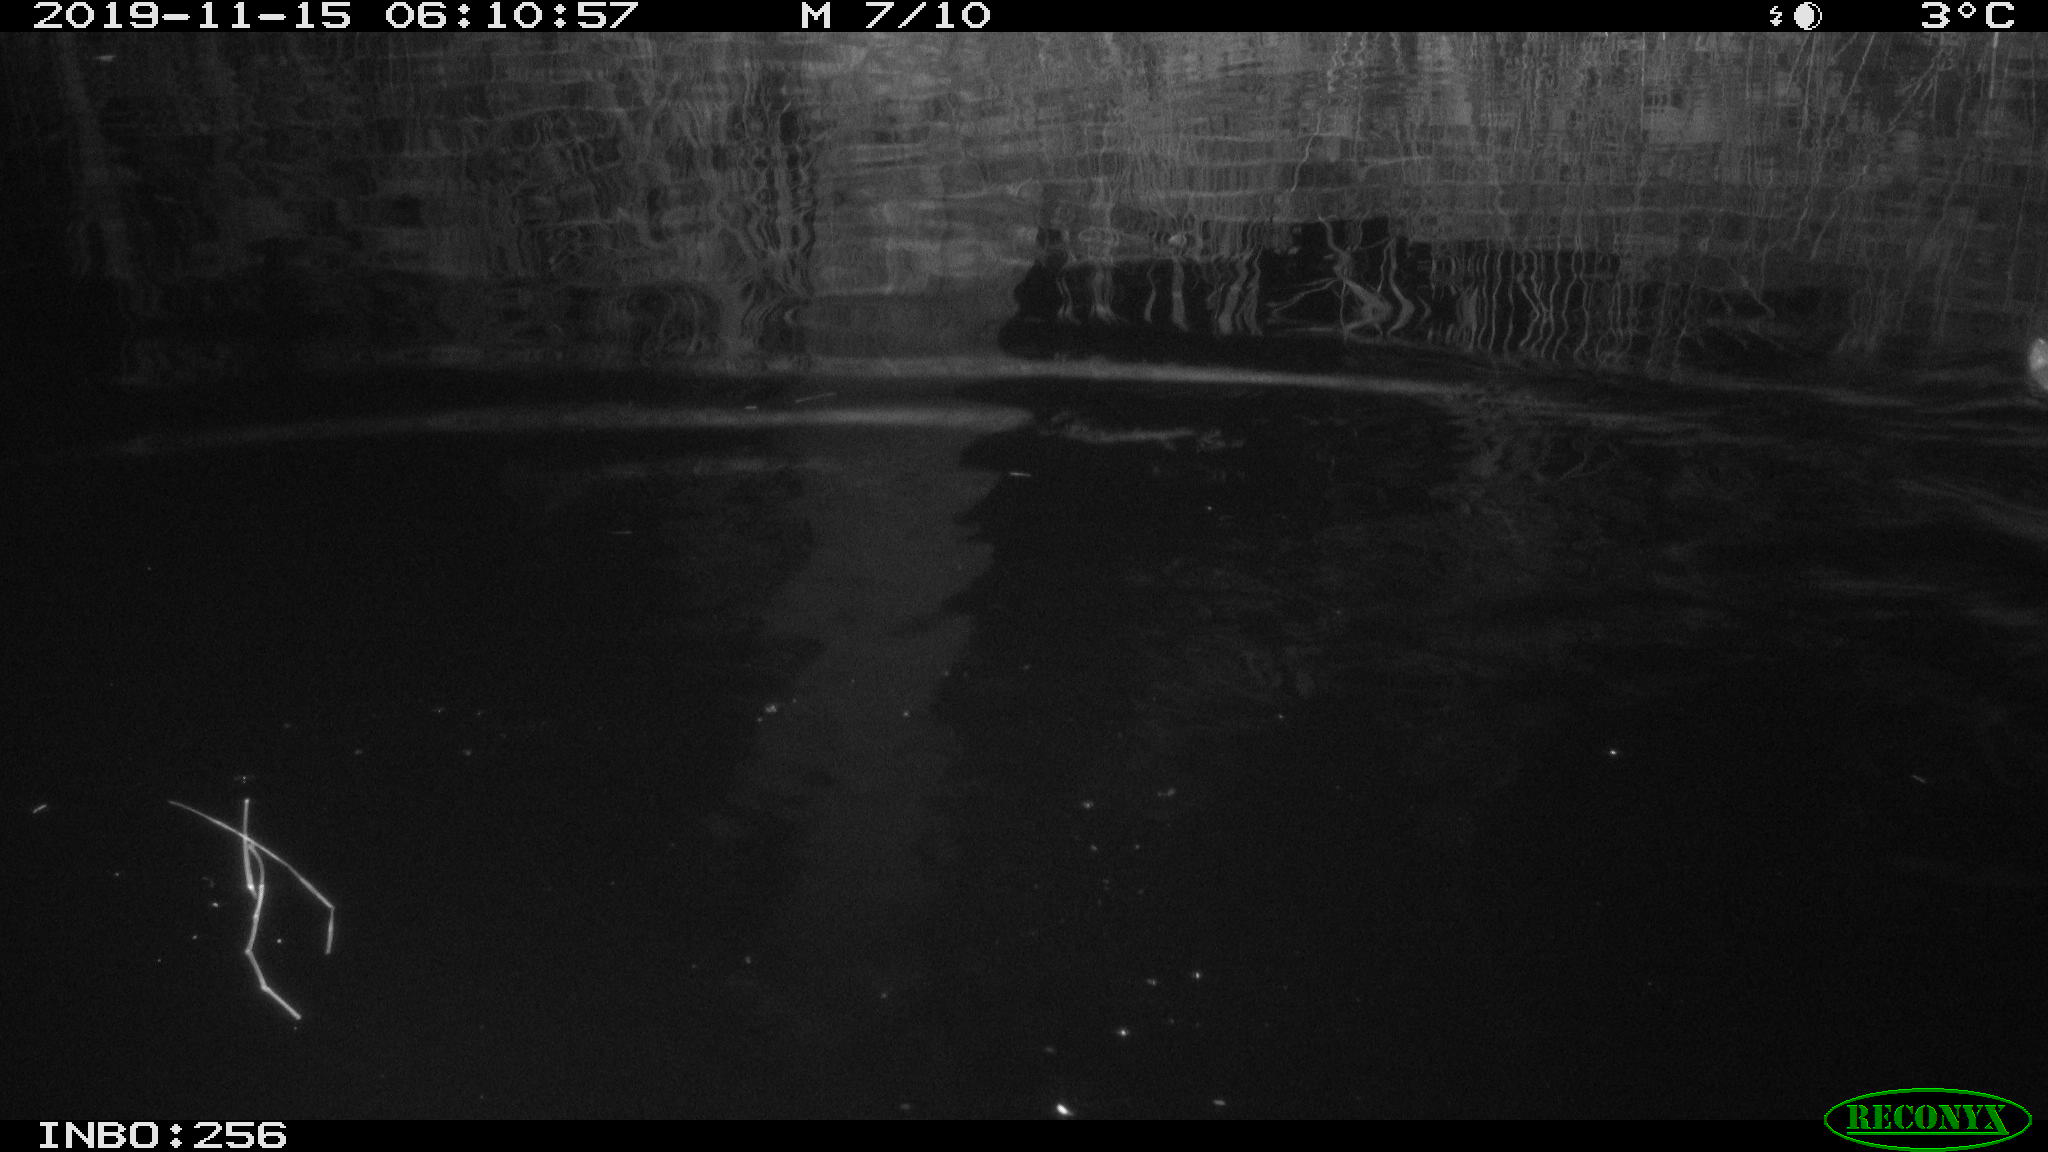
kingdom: Animalia
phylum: Chordata
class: Mammalia
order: Rodentia
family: Muridae
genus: Rattus
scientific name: Rattus norvegicus
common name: Brown rat
